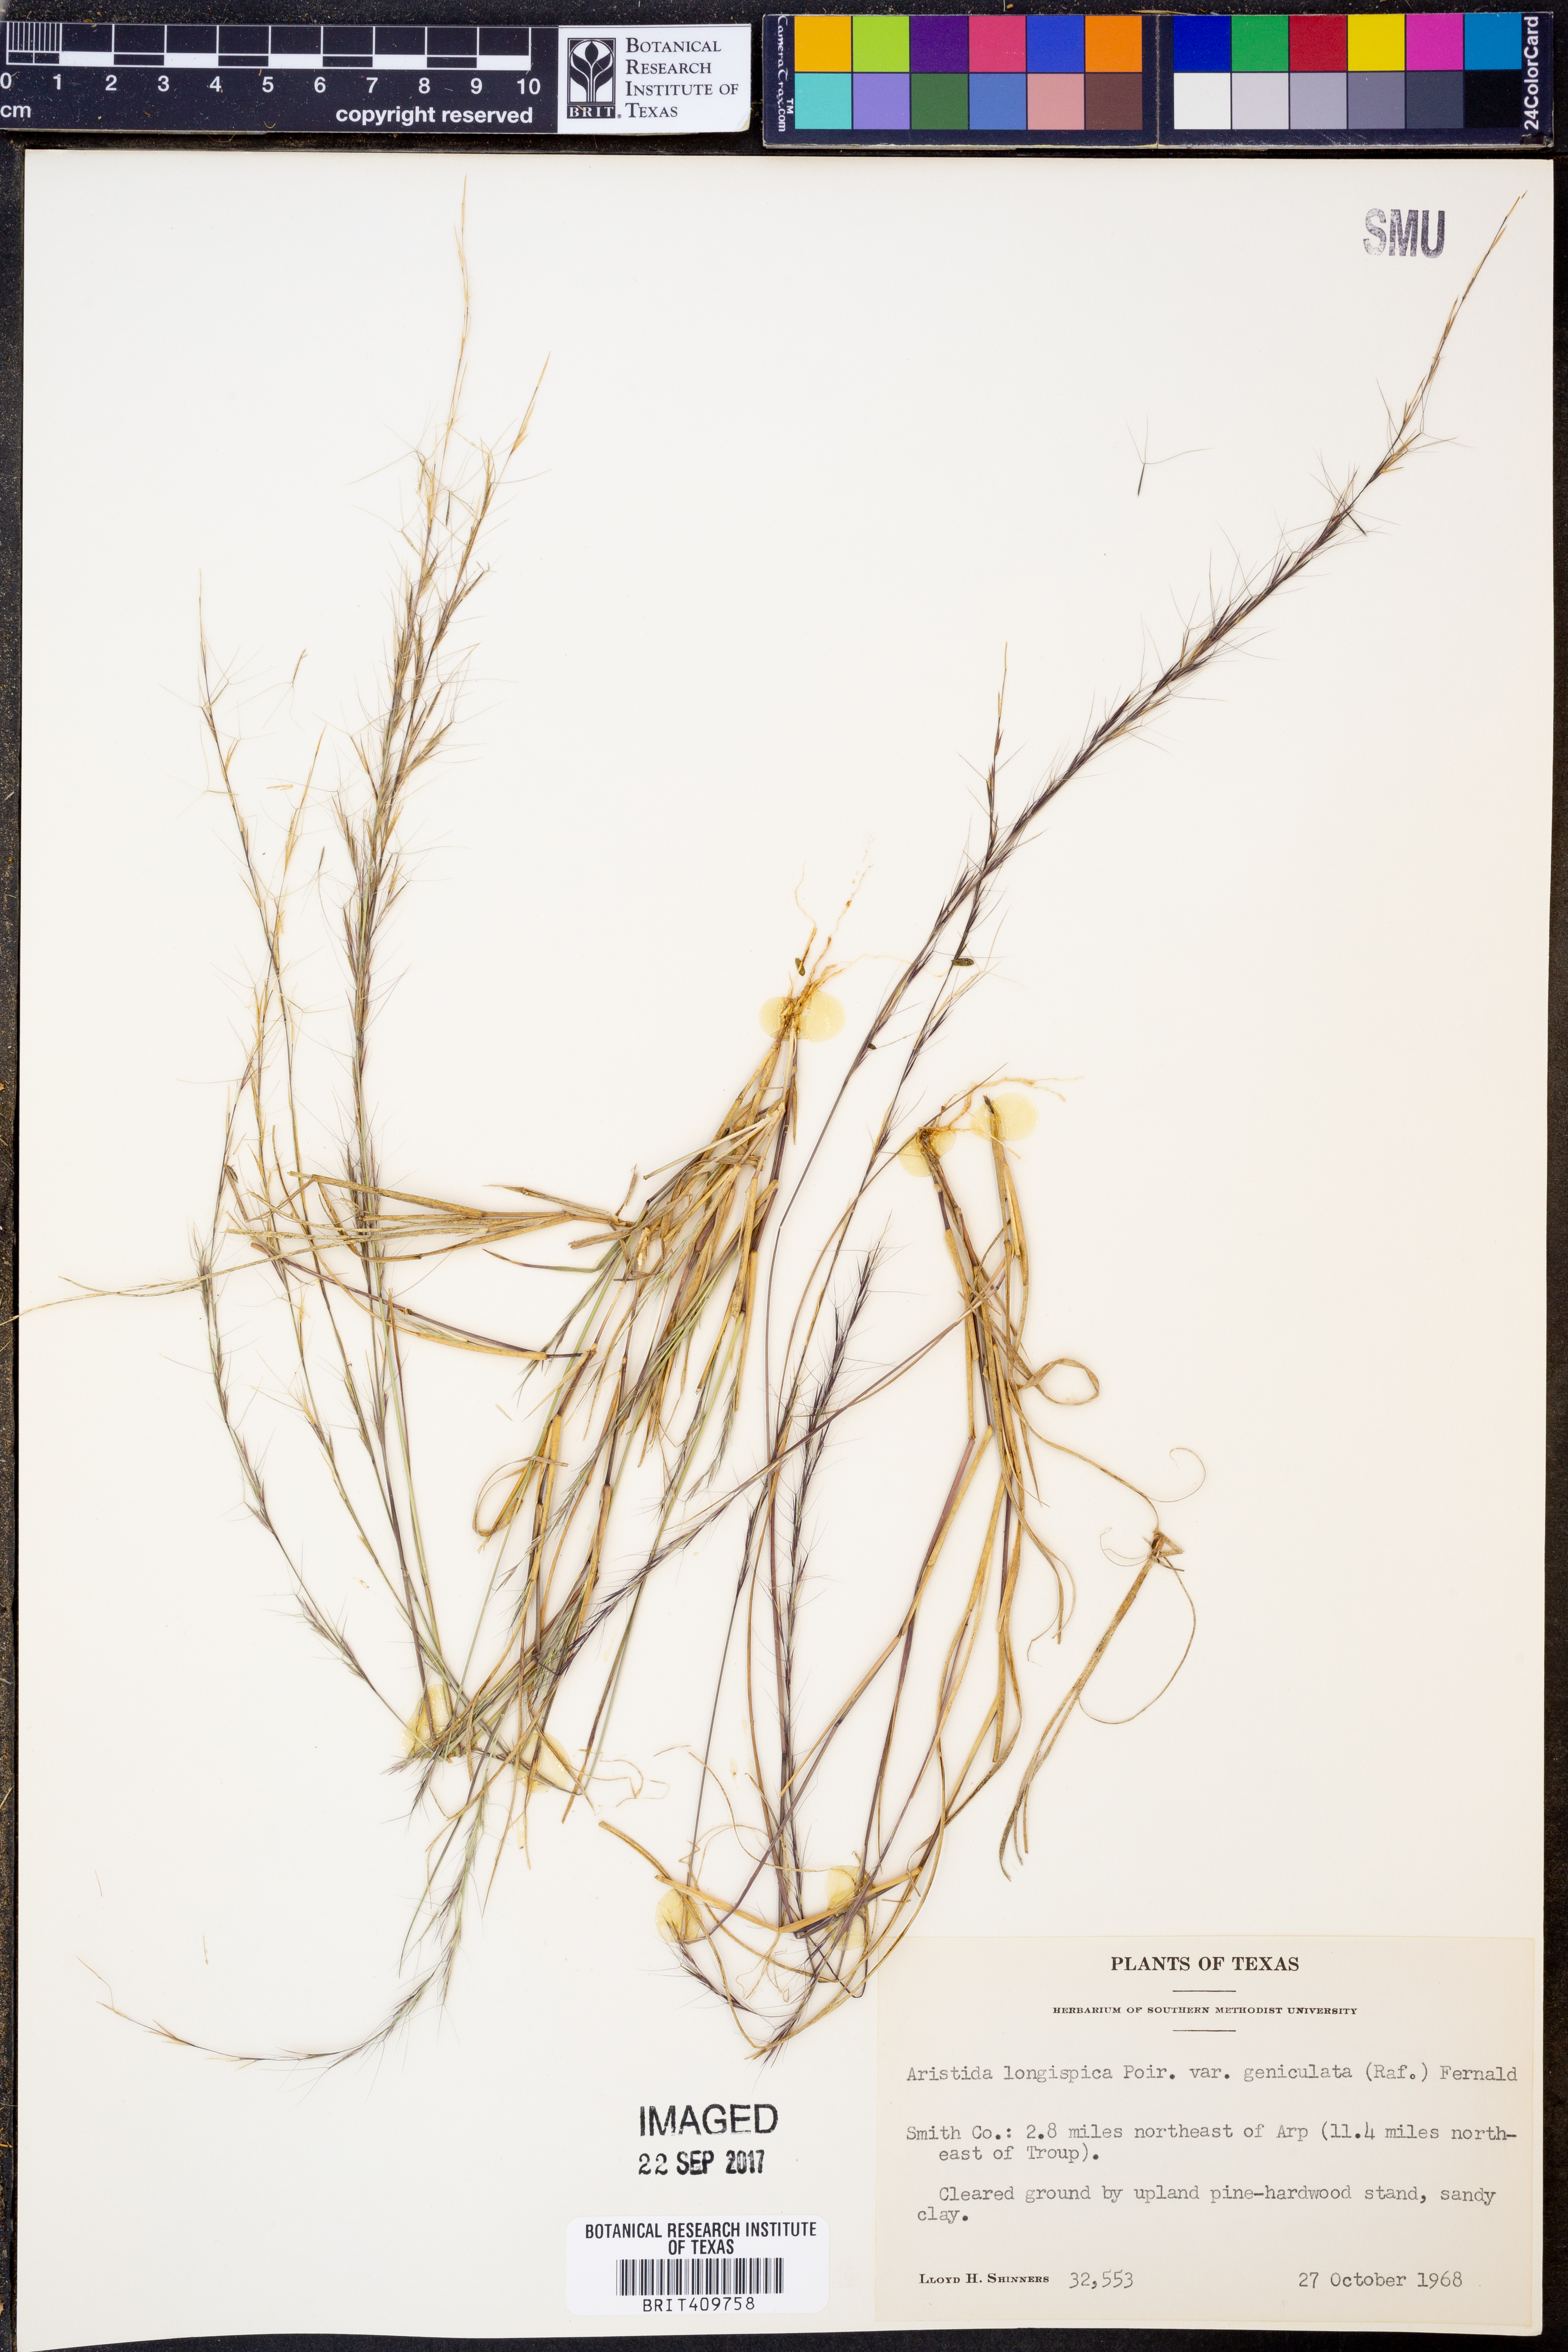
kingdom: Plantae
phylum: Tracheophyta
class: Liliopsida
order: Poales
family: Poaceae
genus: Aristida
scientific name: Aristida longespica
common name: Long-spiked triple-awned grass
